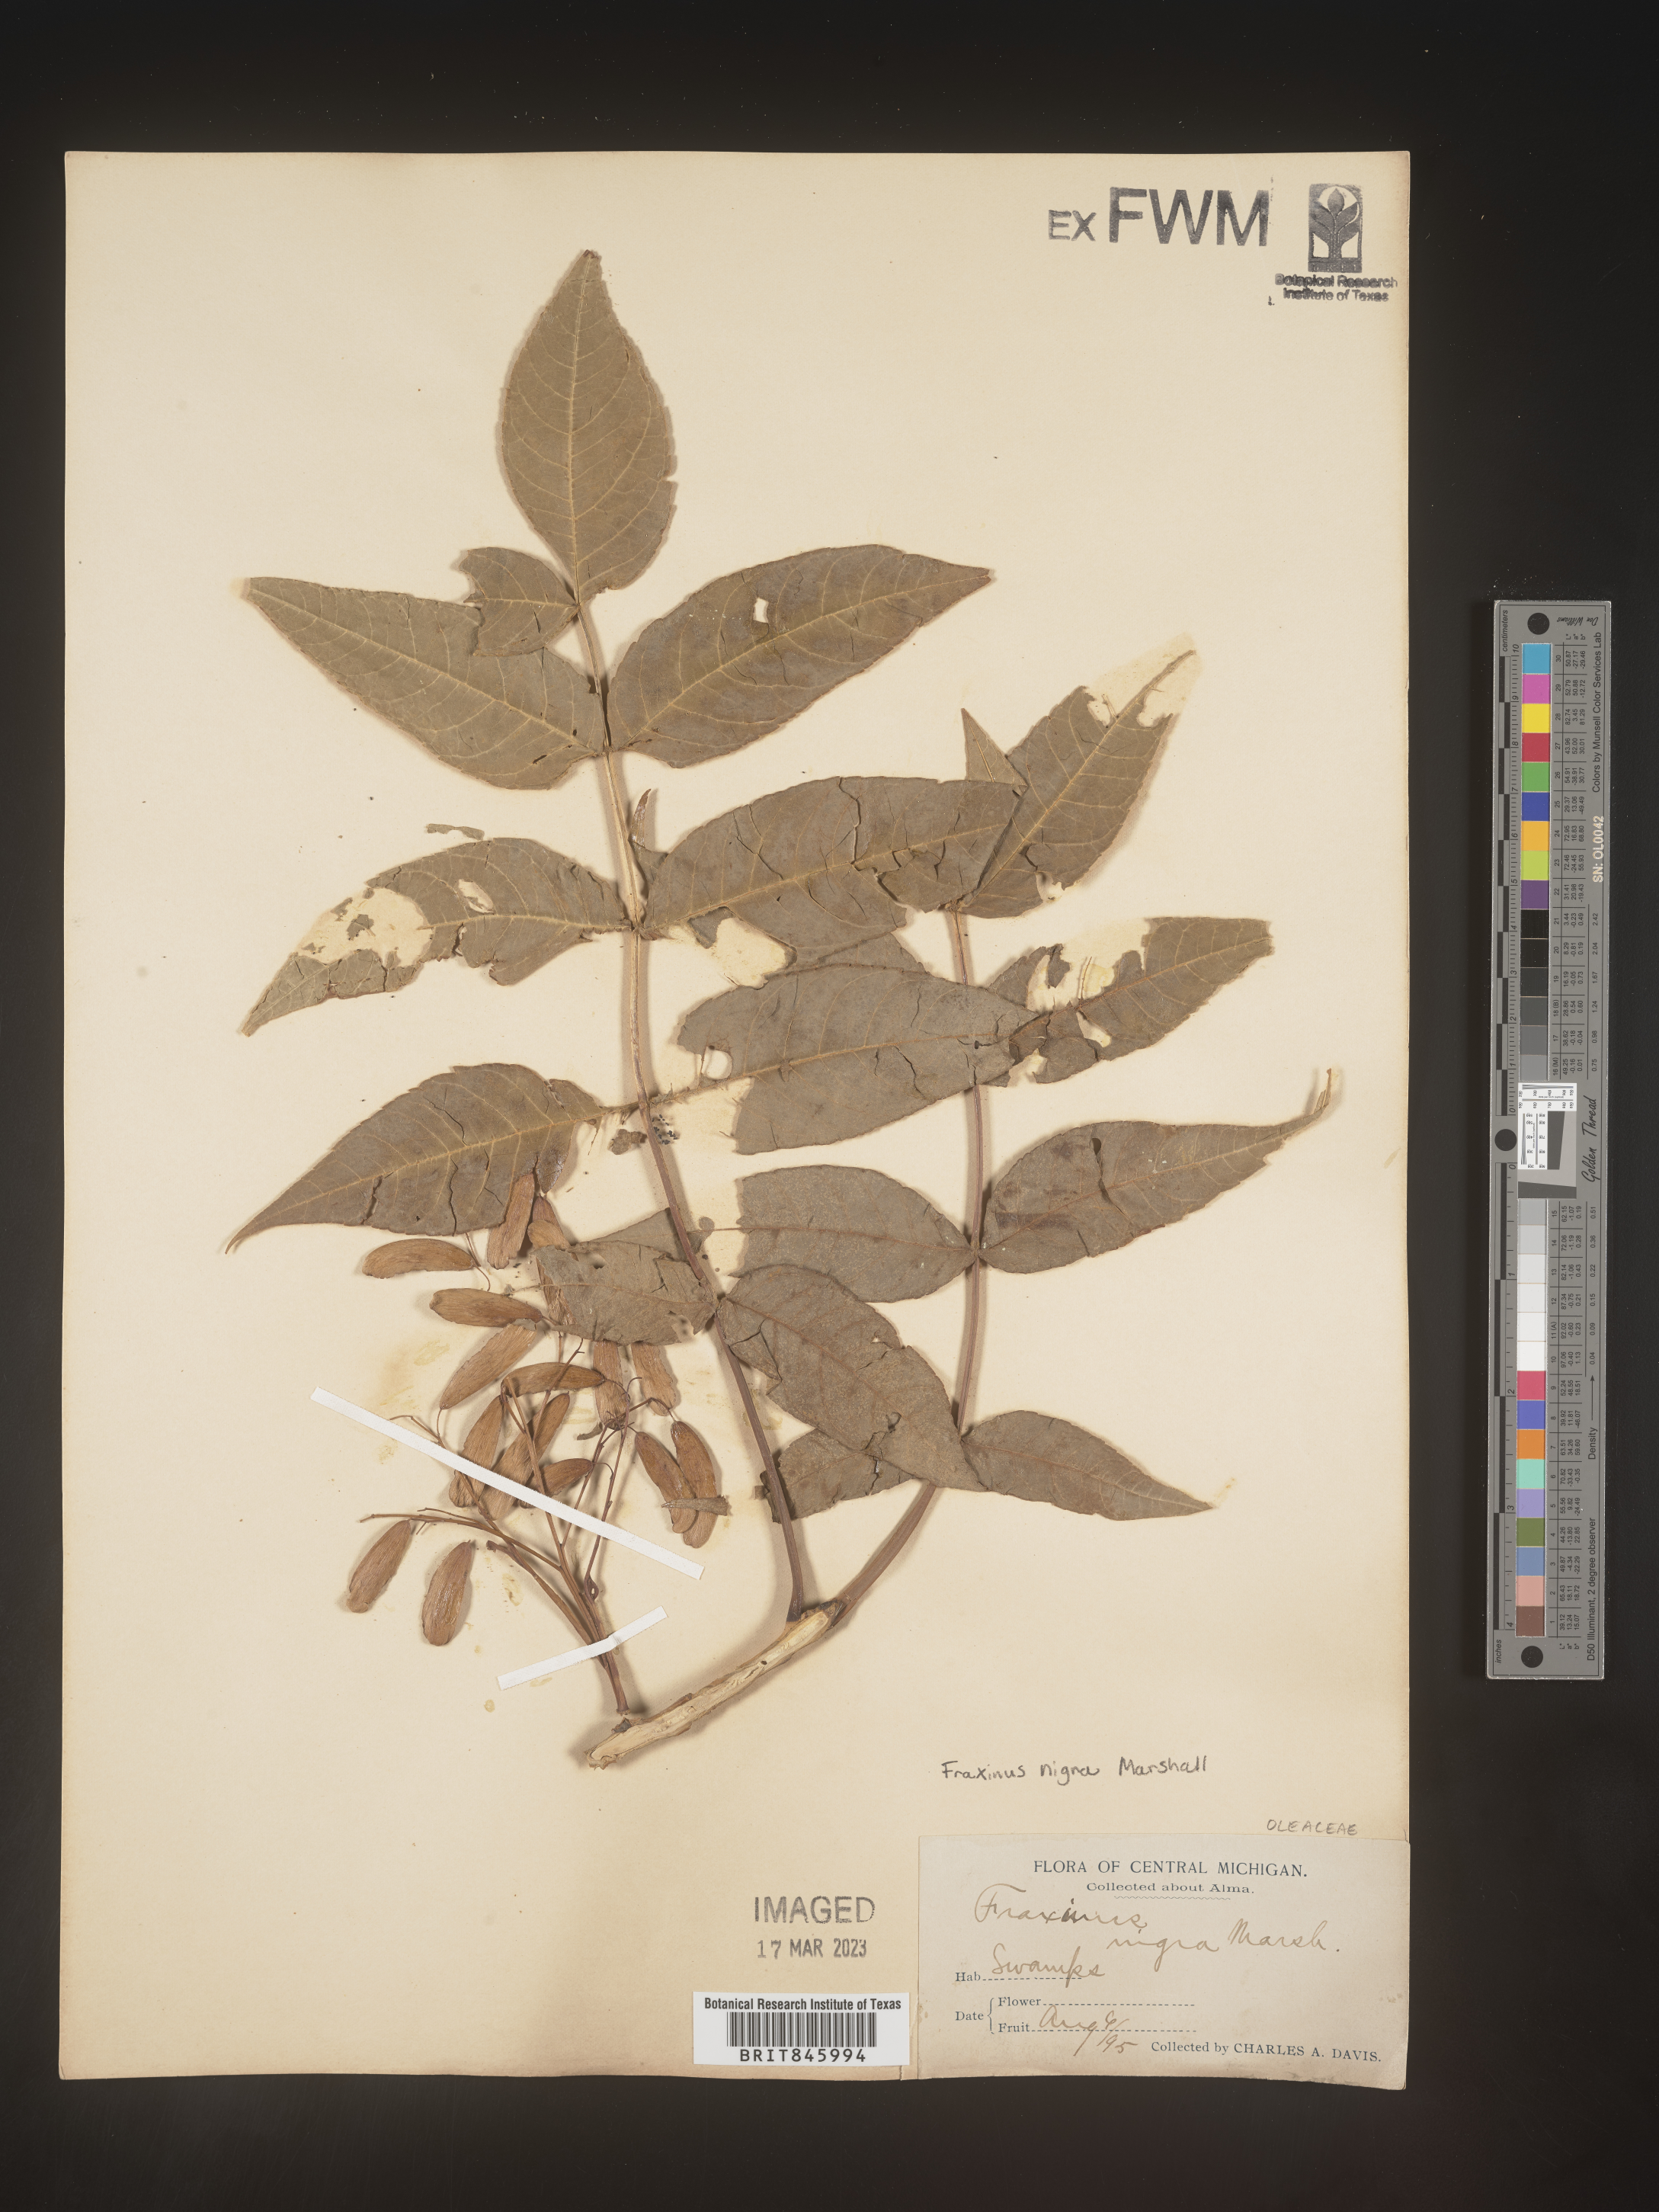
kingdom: Plantae
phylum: Tracheophyta
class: Magnoliopsida
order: Lamiales
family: Oleaceae
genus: Fraxinus
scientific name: Fraxinus nigra
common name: Black ash
